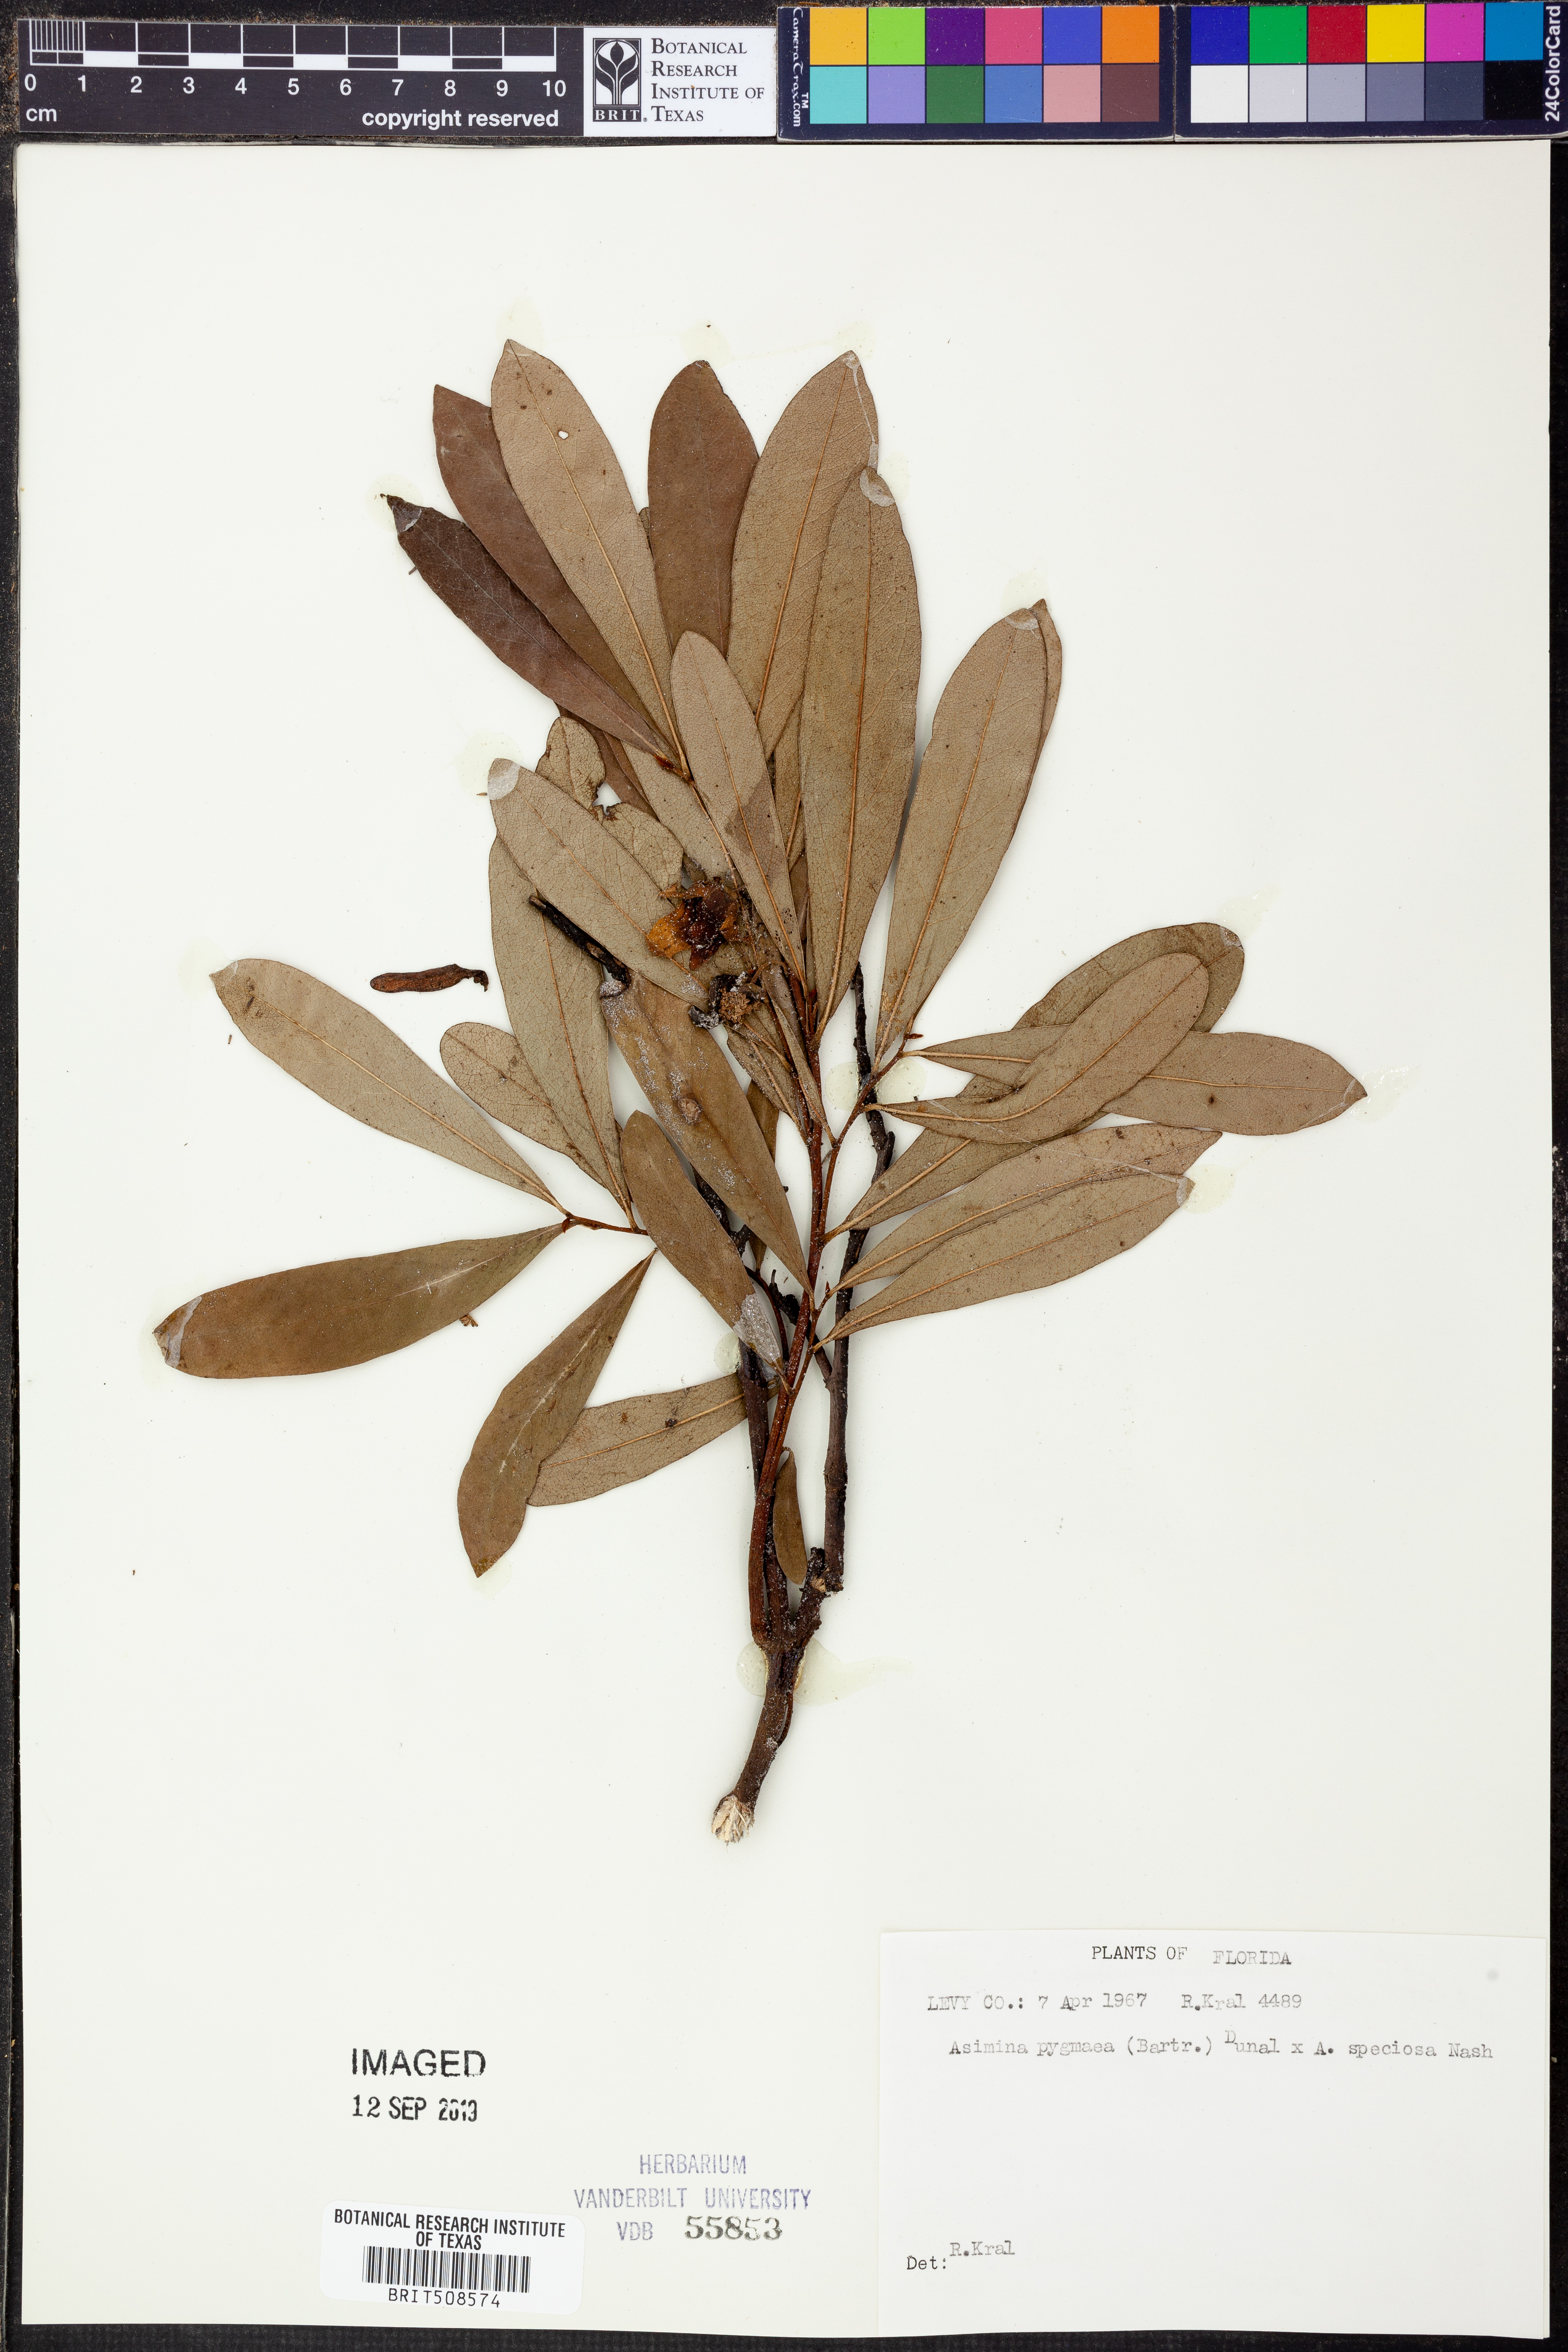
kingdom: Plantae
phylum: Tracheophyta
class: Magnoliopsida
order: Magnoliales
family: Annonaceae
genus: Asimina
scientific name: Asimina pygmaea
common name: Dwarf pawpaw
